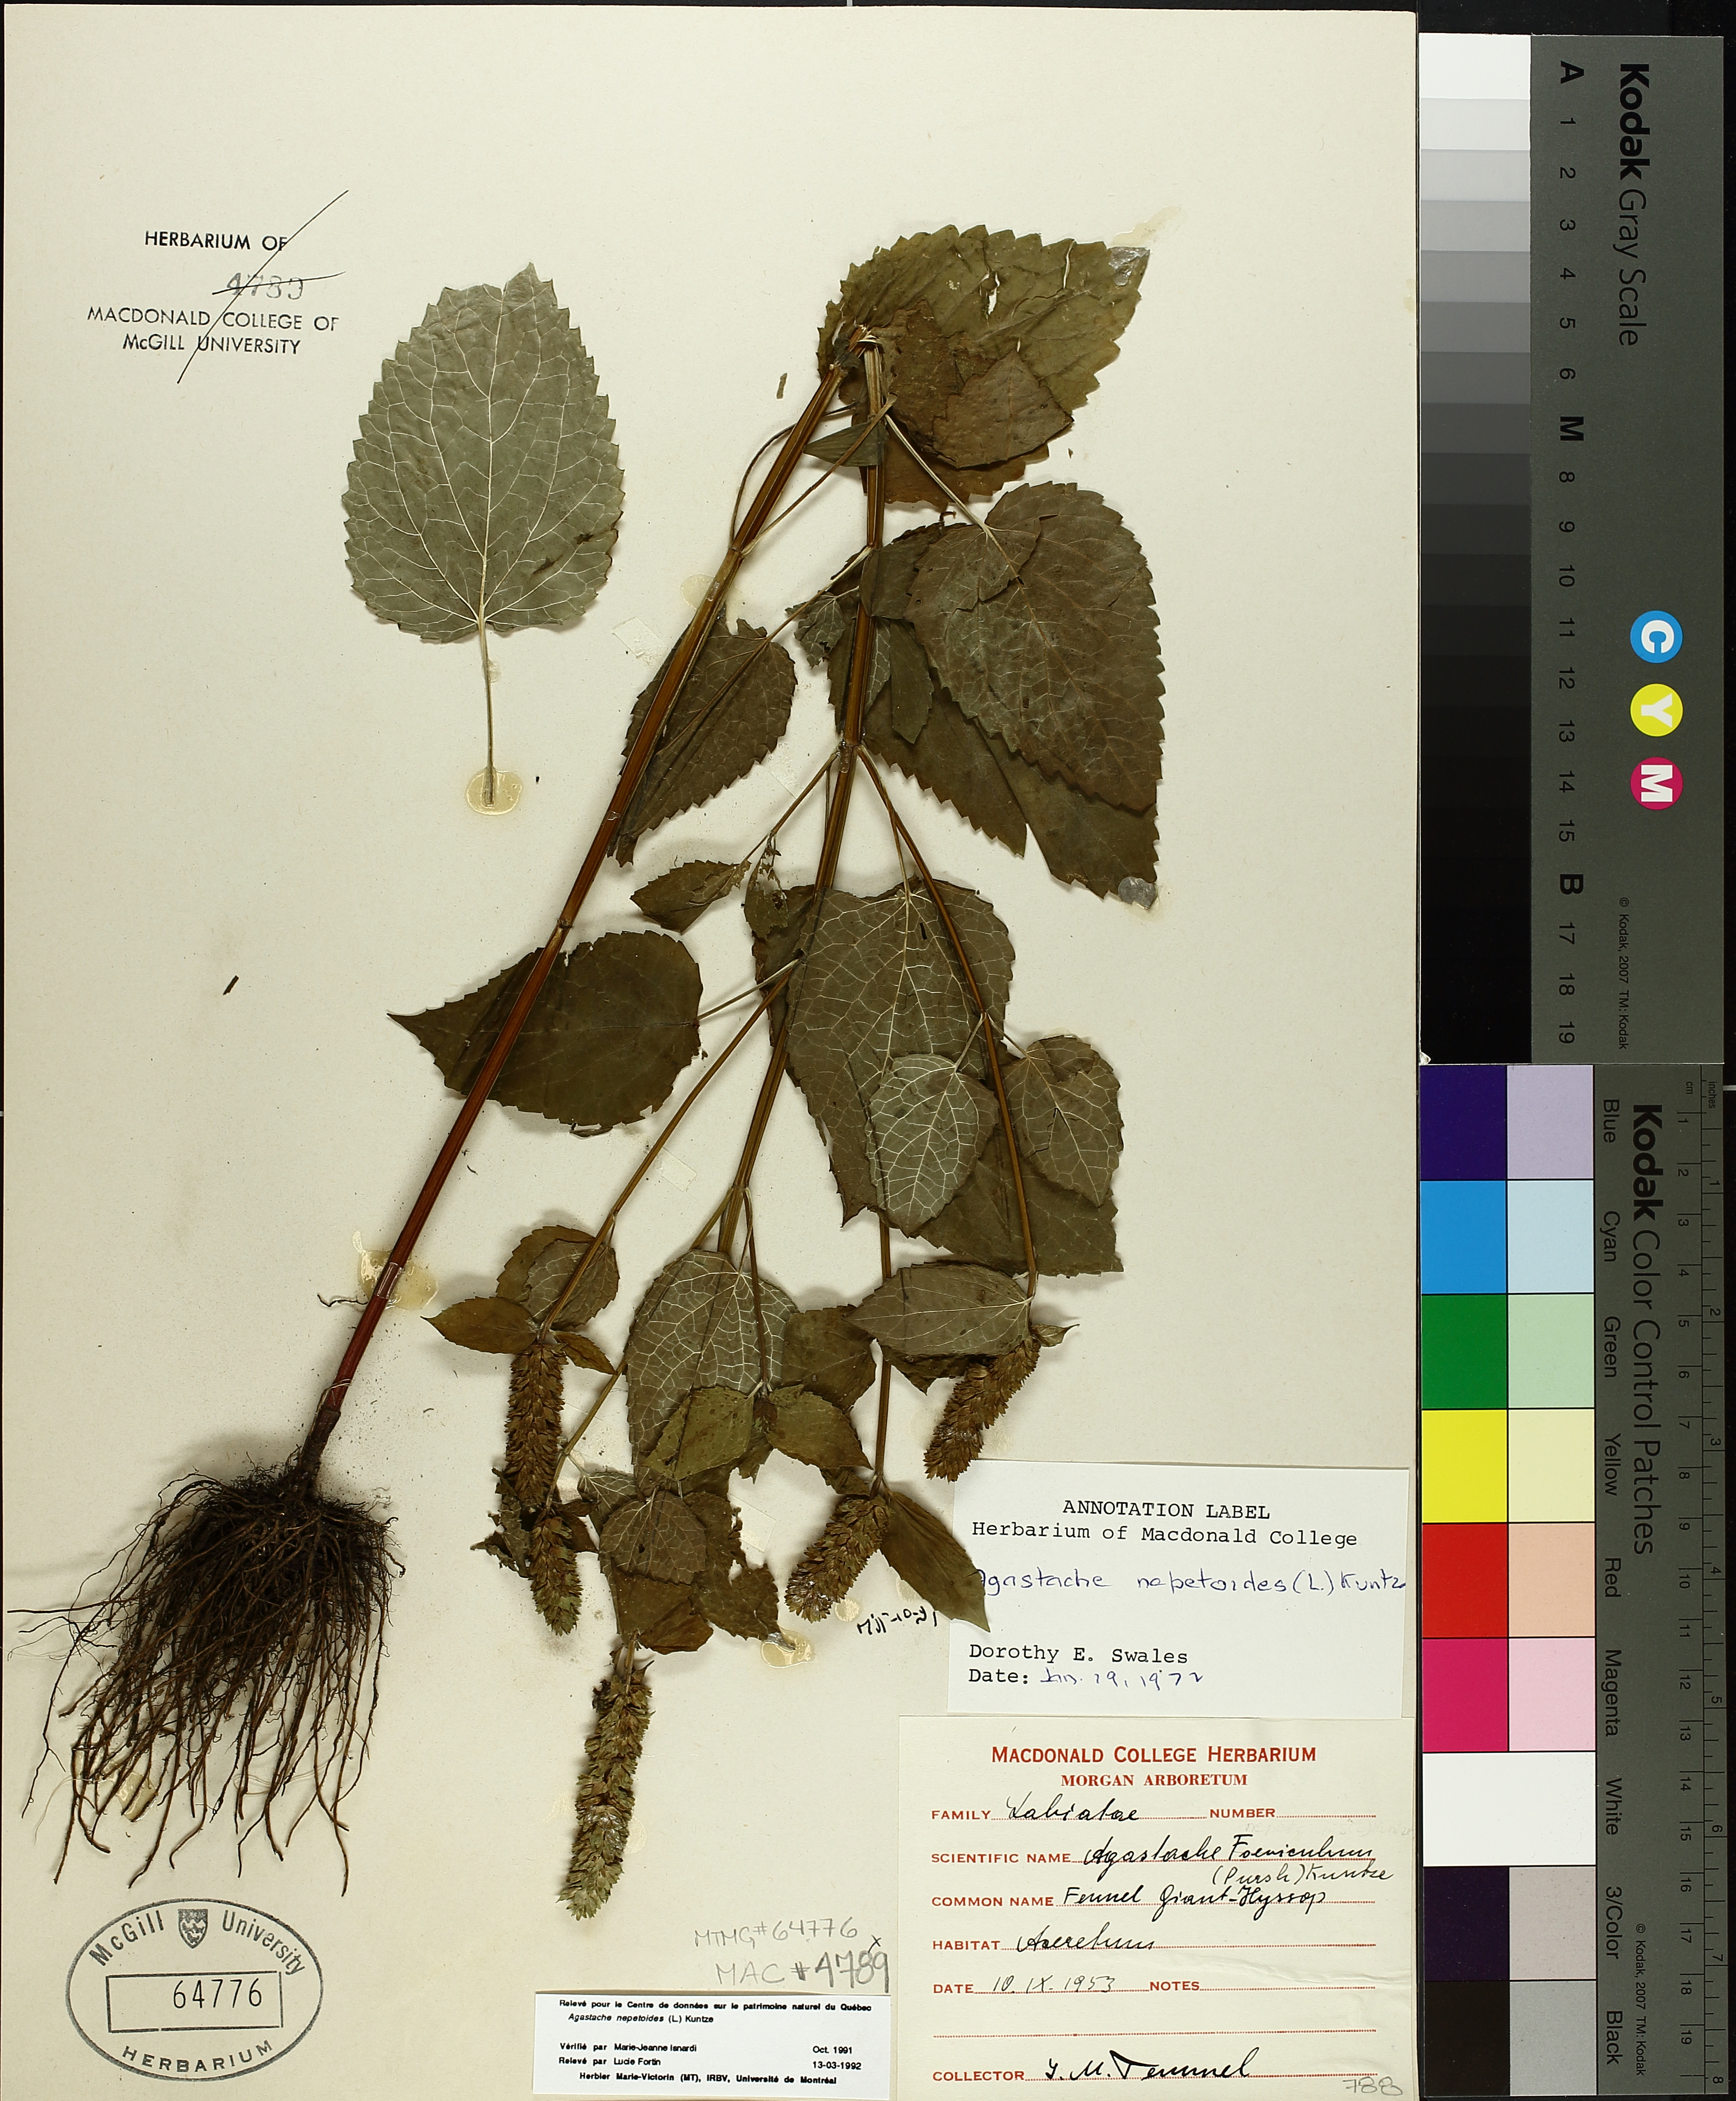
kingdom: Plantae
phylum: Tracheophyta
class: Magnoliopsida
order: Lamiales
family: Lamiaceae
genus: Agastache
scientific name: Agastache nepetoides
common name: Catnip giant hyssop
